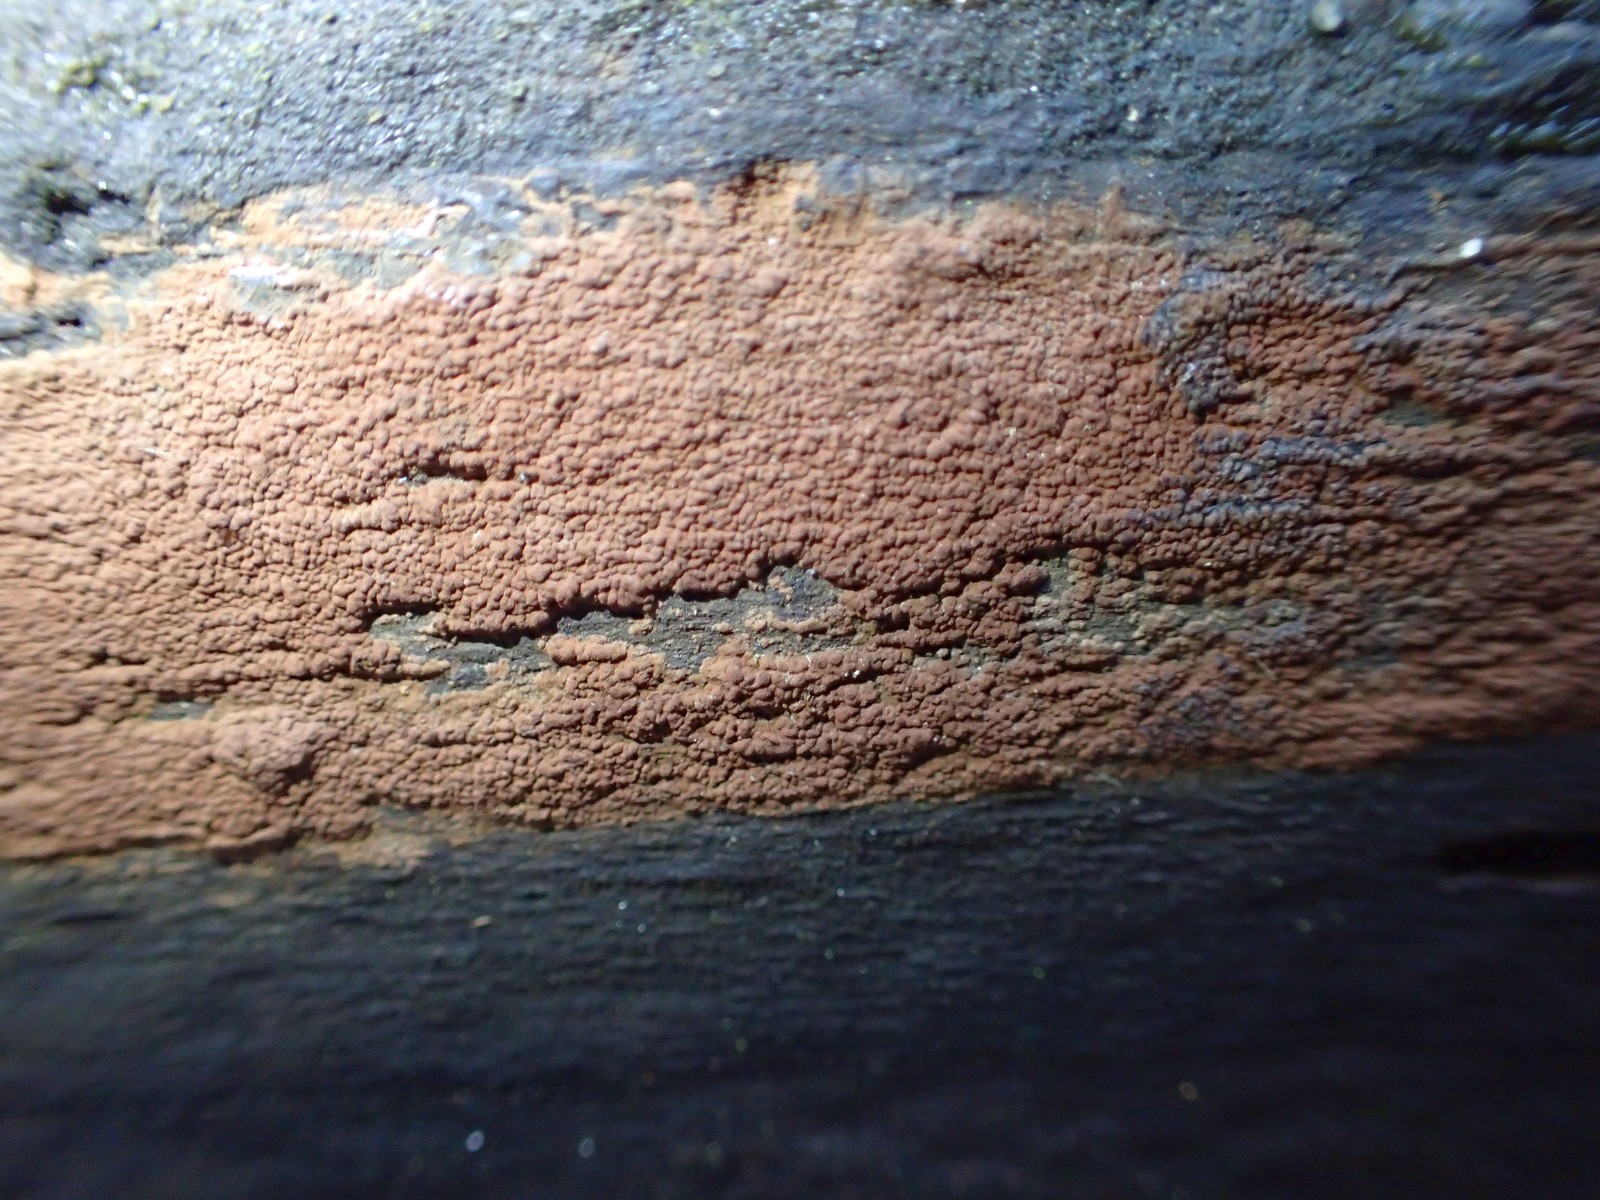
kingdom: Fungi
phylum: Ascomycota
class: Sordariomycetes
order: Xylariales
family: Hypoxylaceae
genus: Hypoxylon
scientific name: Hypoxylon rubiginosum
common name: rustfarvet kulbær
